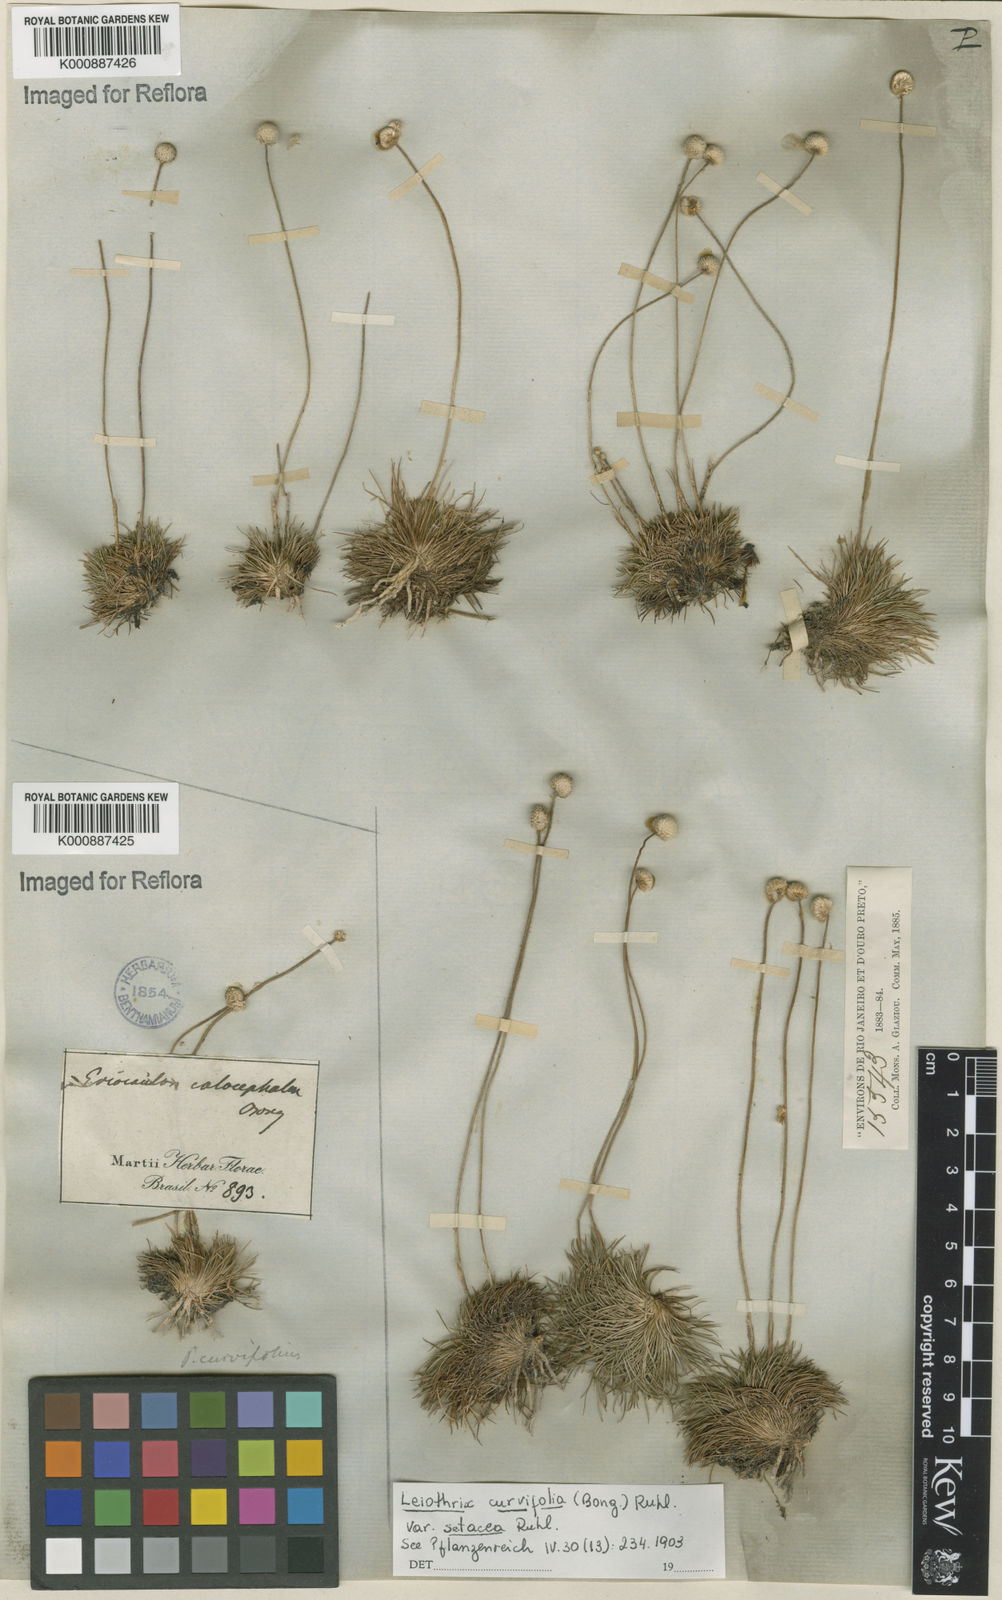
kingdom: Plantae
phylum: Tracheophyta
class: Liliopsida
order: Poales
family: Eriocaulaceae
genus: Leiothrix
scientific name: Leiothrix mucronata
